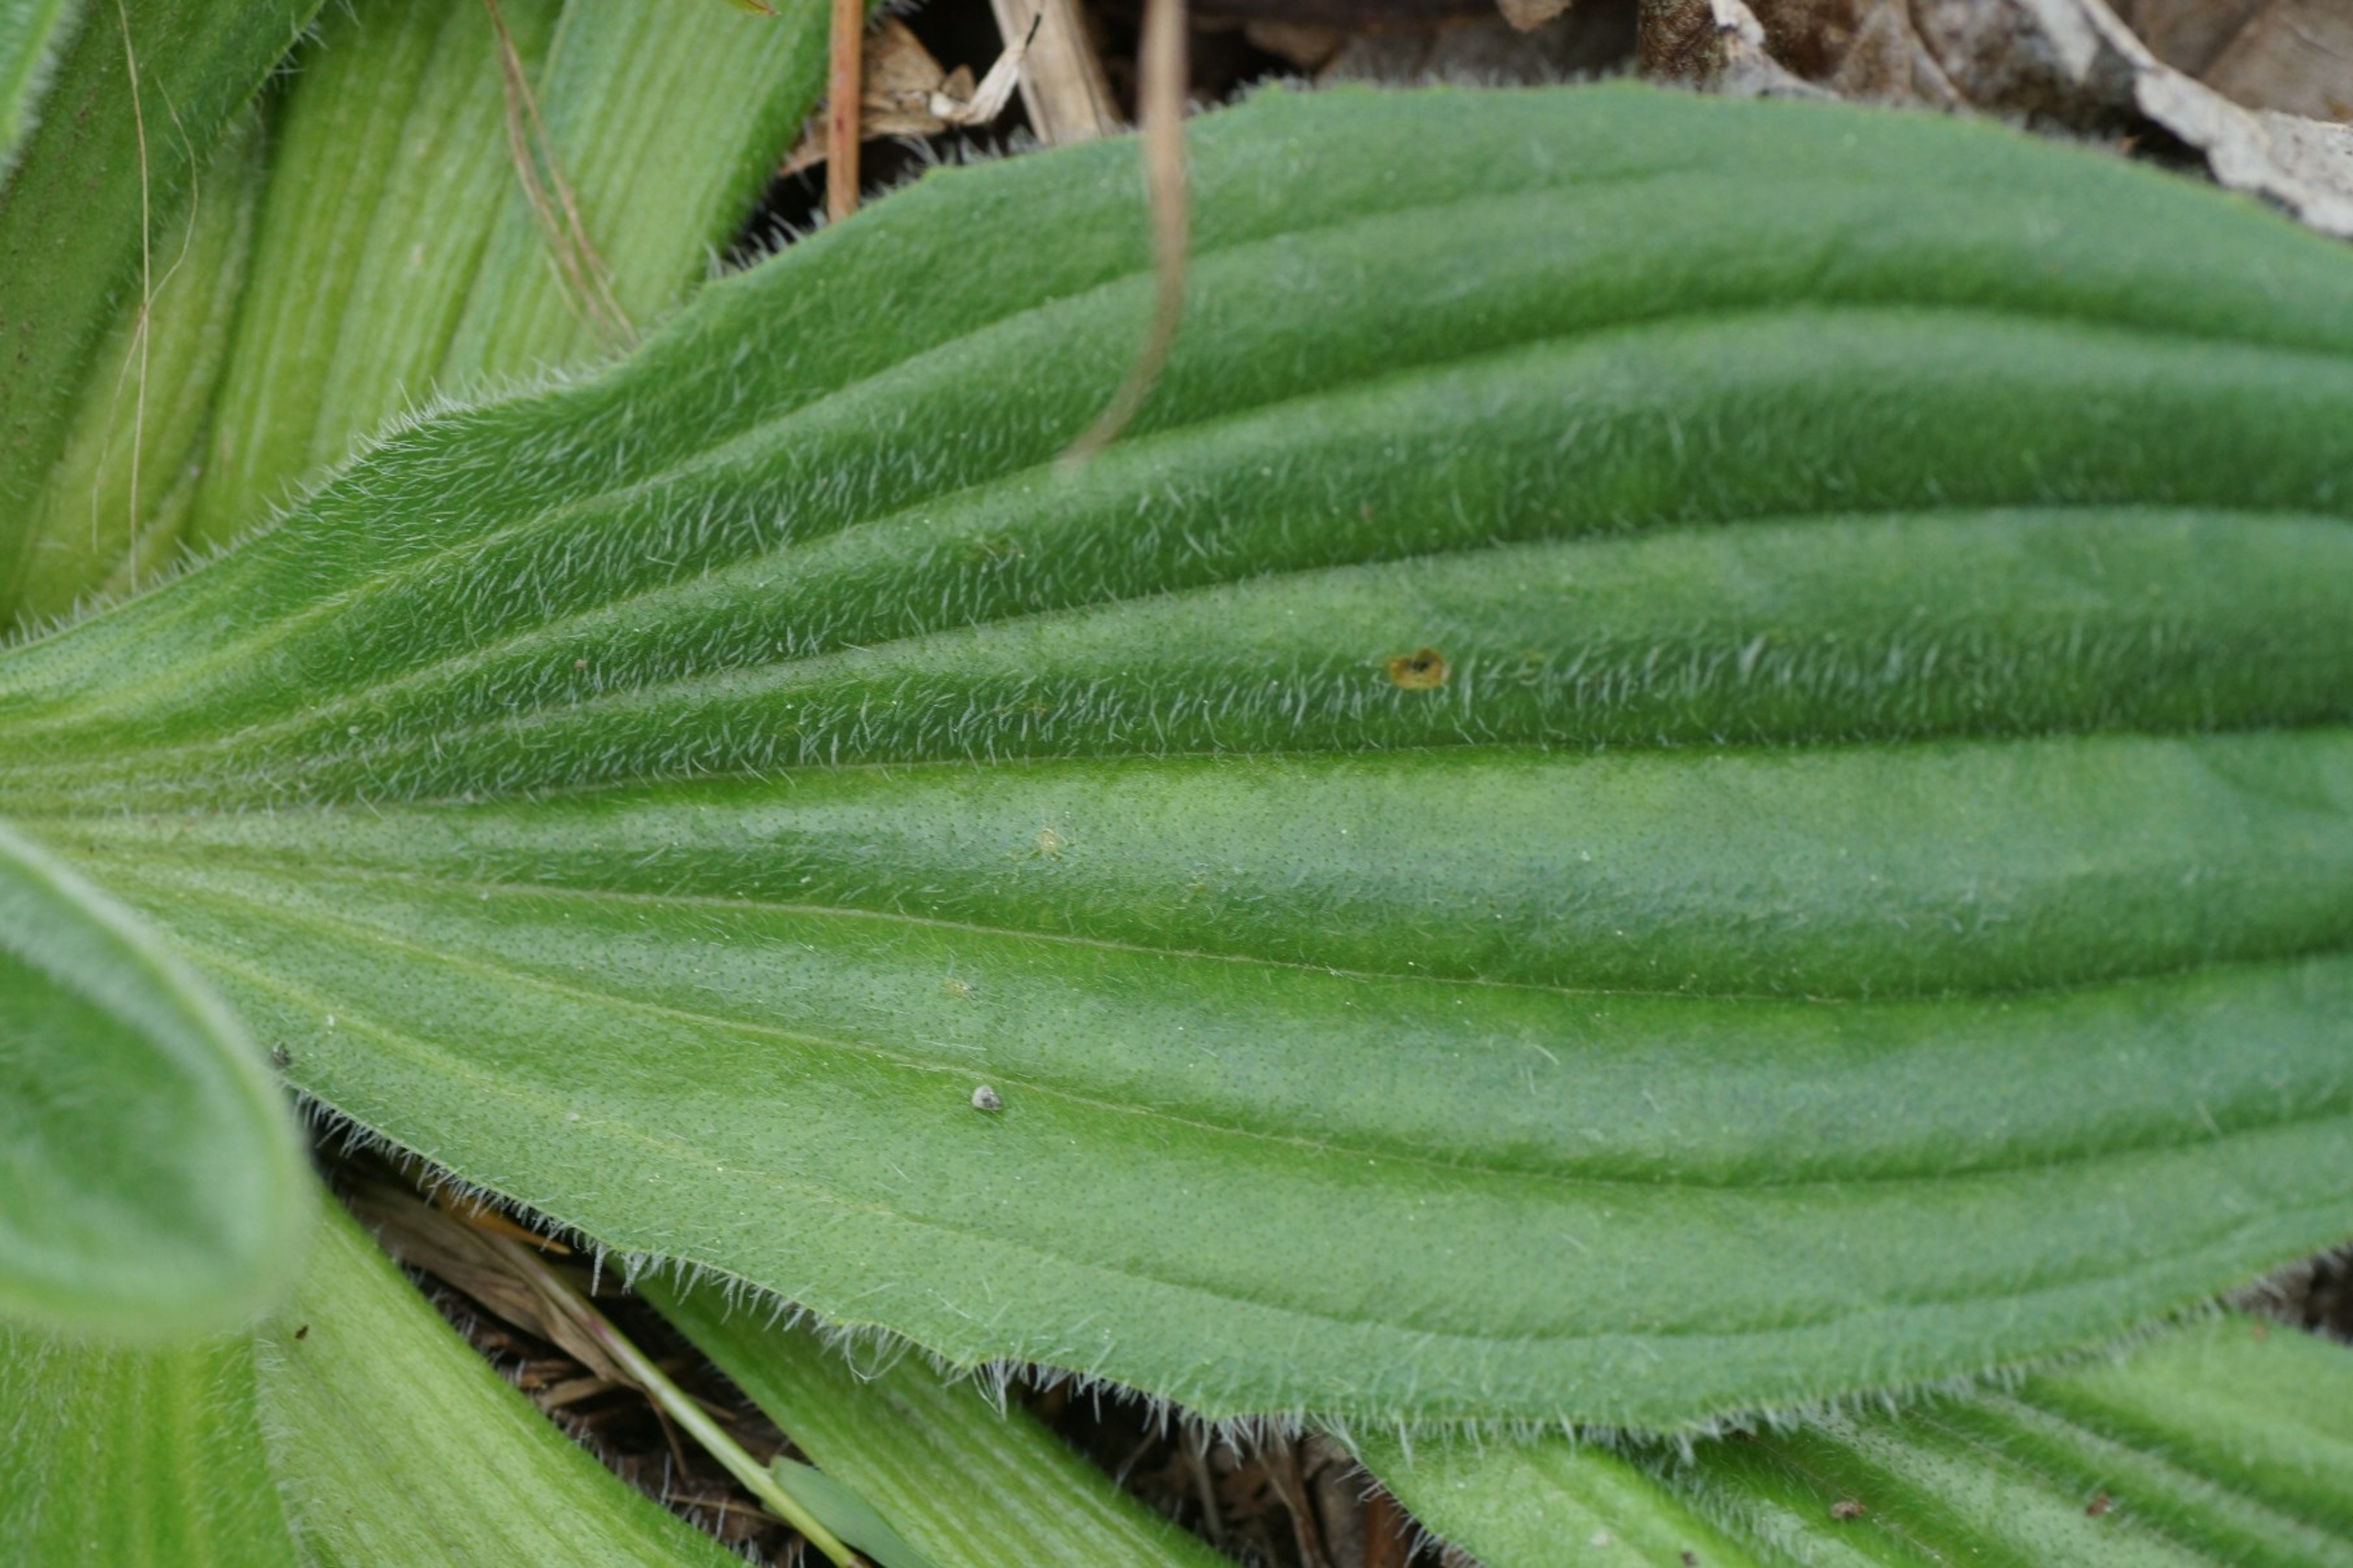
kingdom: Plantae
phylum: Tracheophyta
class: Magnoliopsida
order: Lamiales
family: Plantaginaceae
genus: Plantago
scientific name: Plantago media
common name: Dunet vejbred
